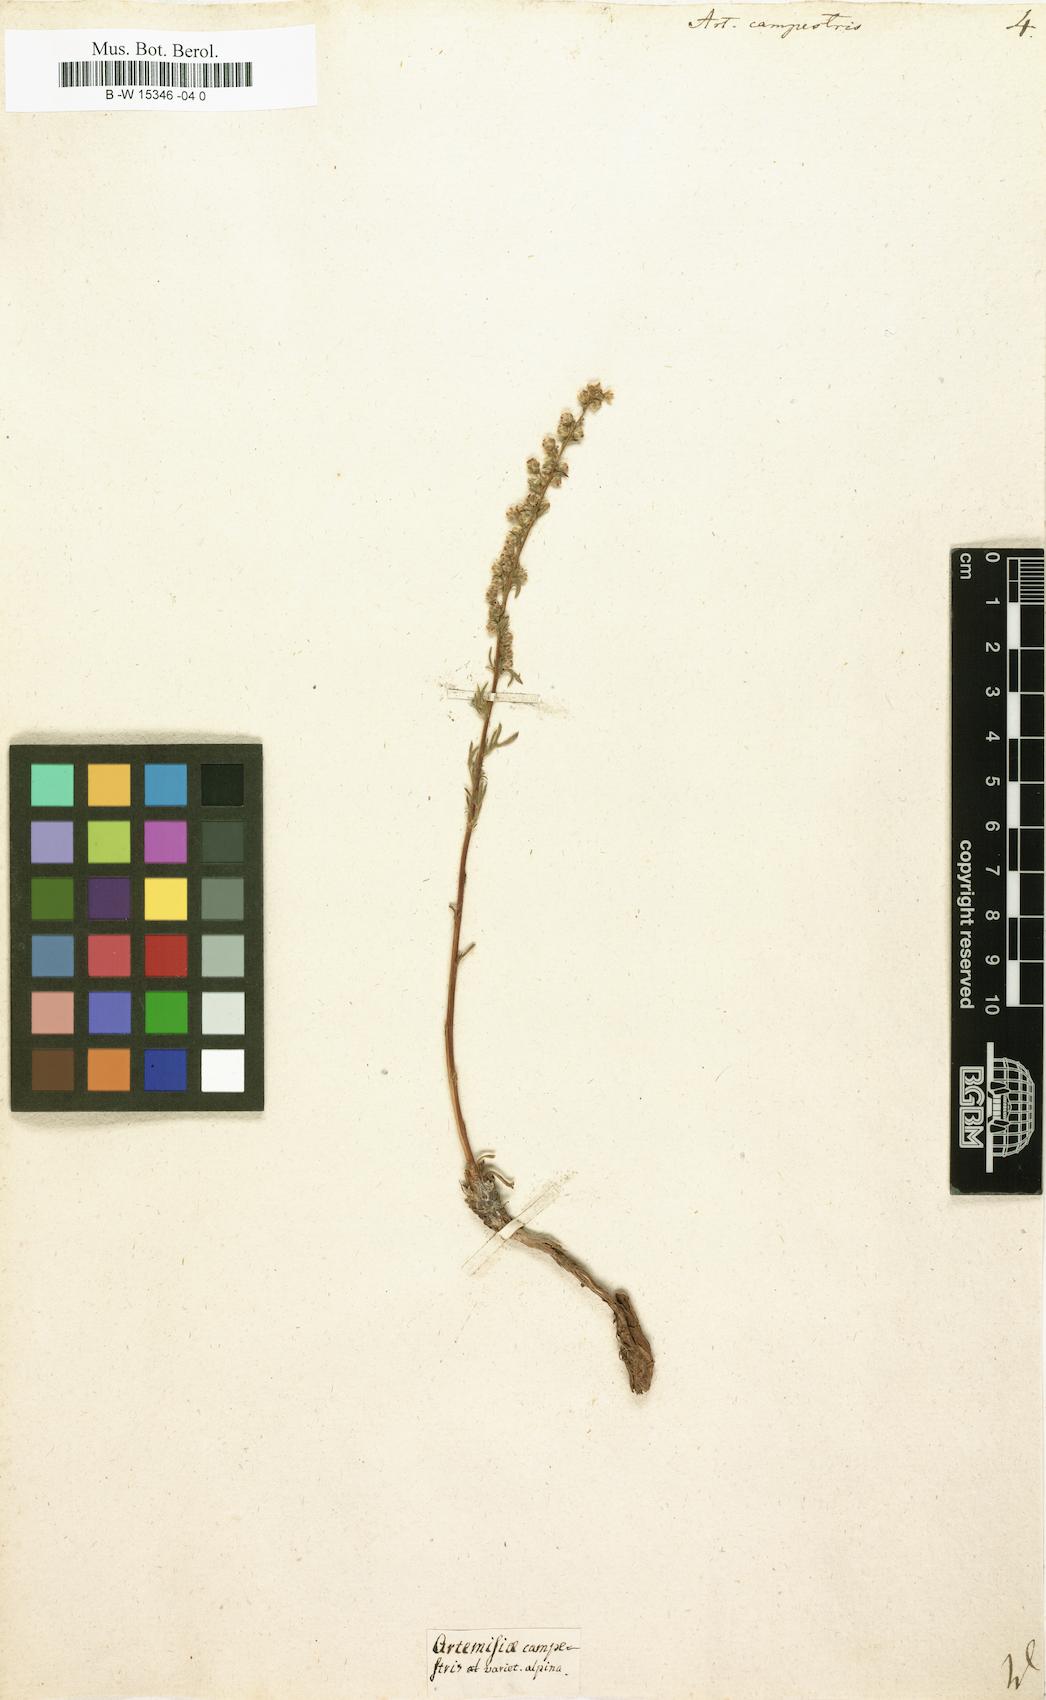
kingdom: Plantae
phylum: Tracheophyta
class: Magnoliopsida
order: Asterales
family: Asteraceae
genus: Artemisia
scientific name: Artemisia campestris
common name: Field wormwood
